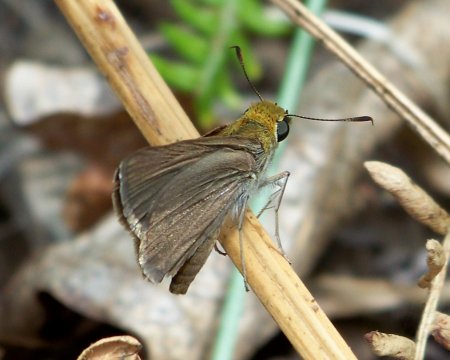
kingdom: Animalia
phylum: Arthropoda
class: Insecta
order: Lepidoptera
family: Hesperiidae
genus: Euphyes
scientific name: Euphyes vestris
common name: Dun Skipper
